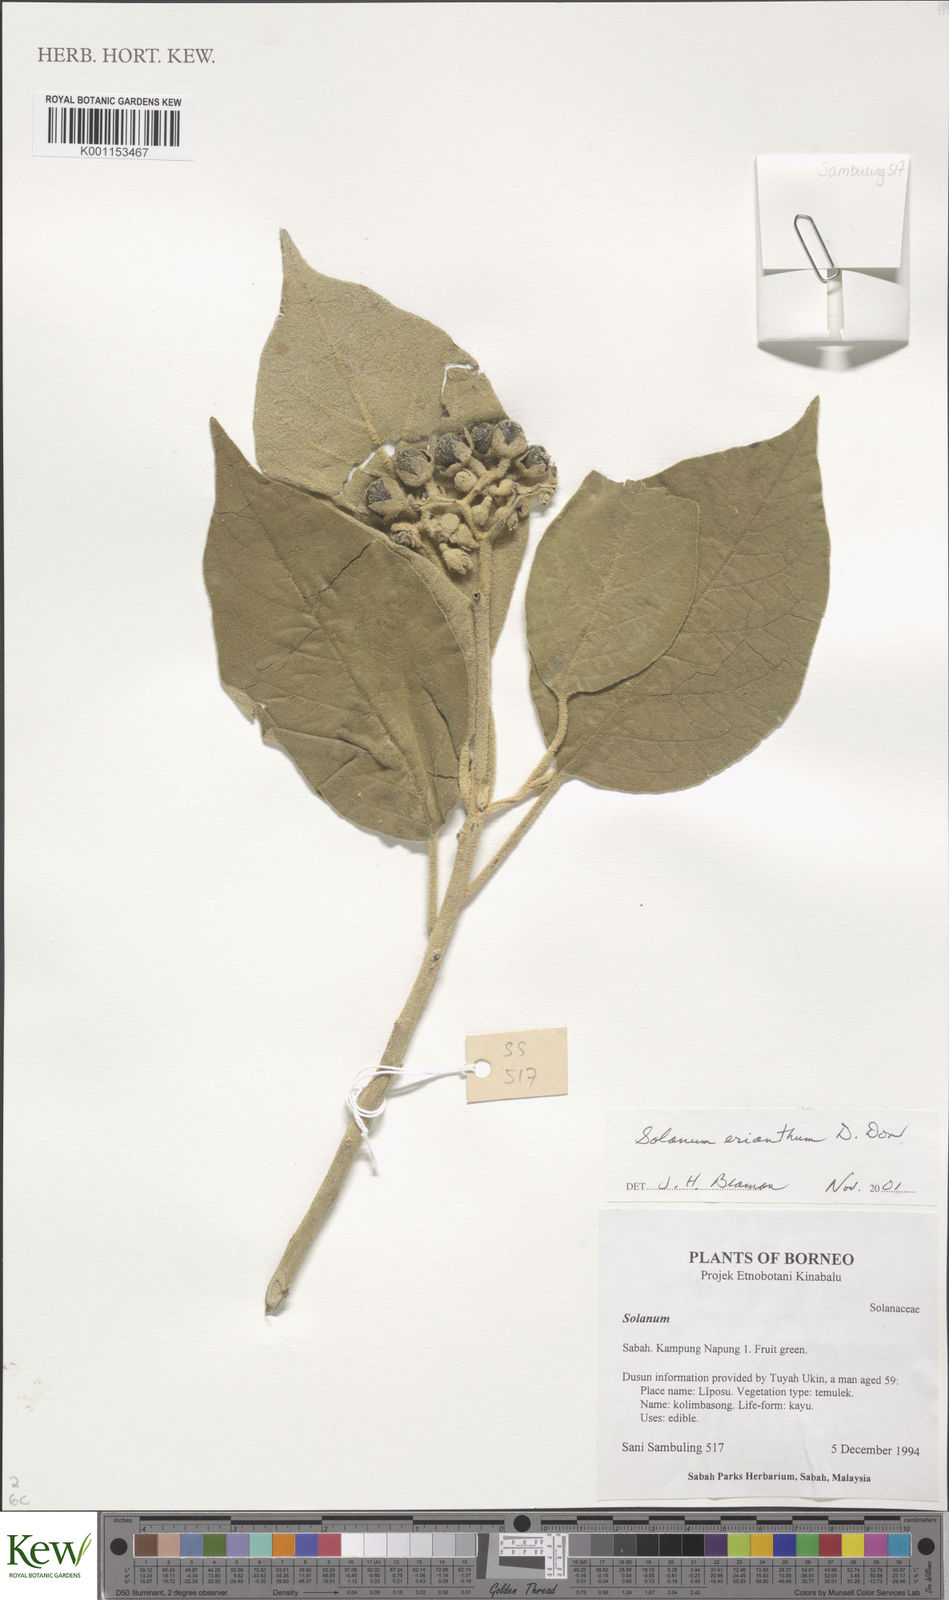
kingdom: Plantae
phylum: Tracheophyta
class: Magnoliopsida
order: Solanales
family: Solanaceae
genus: Solanum
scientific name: Solanum erianthum
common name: Tobacco-tree
